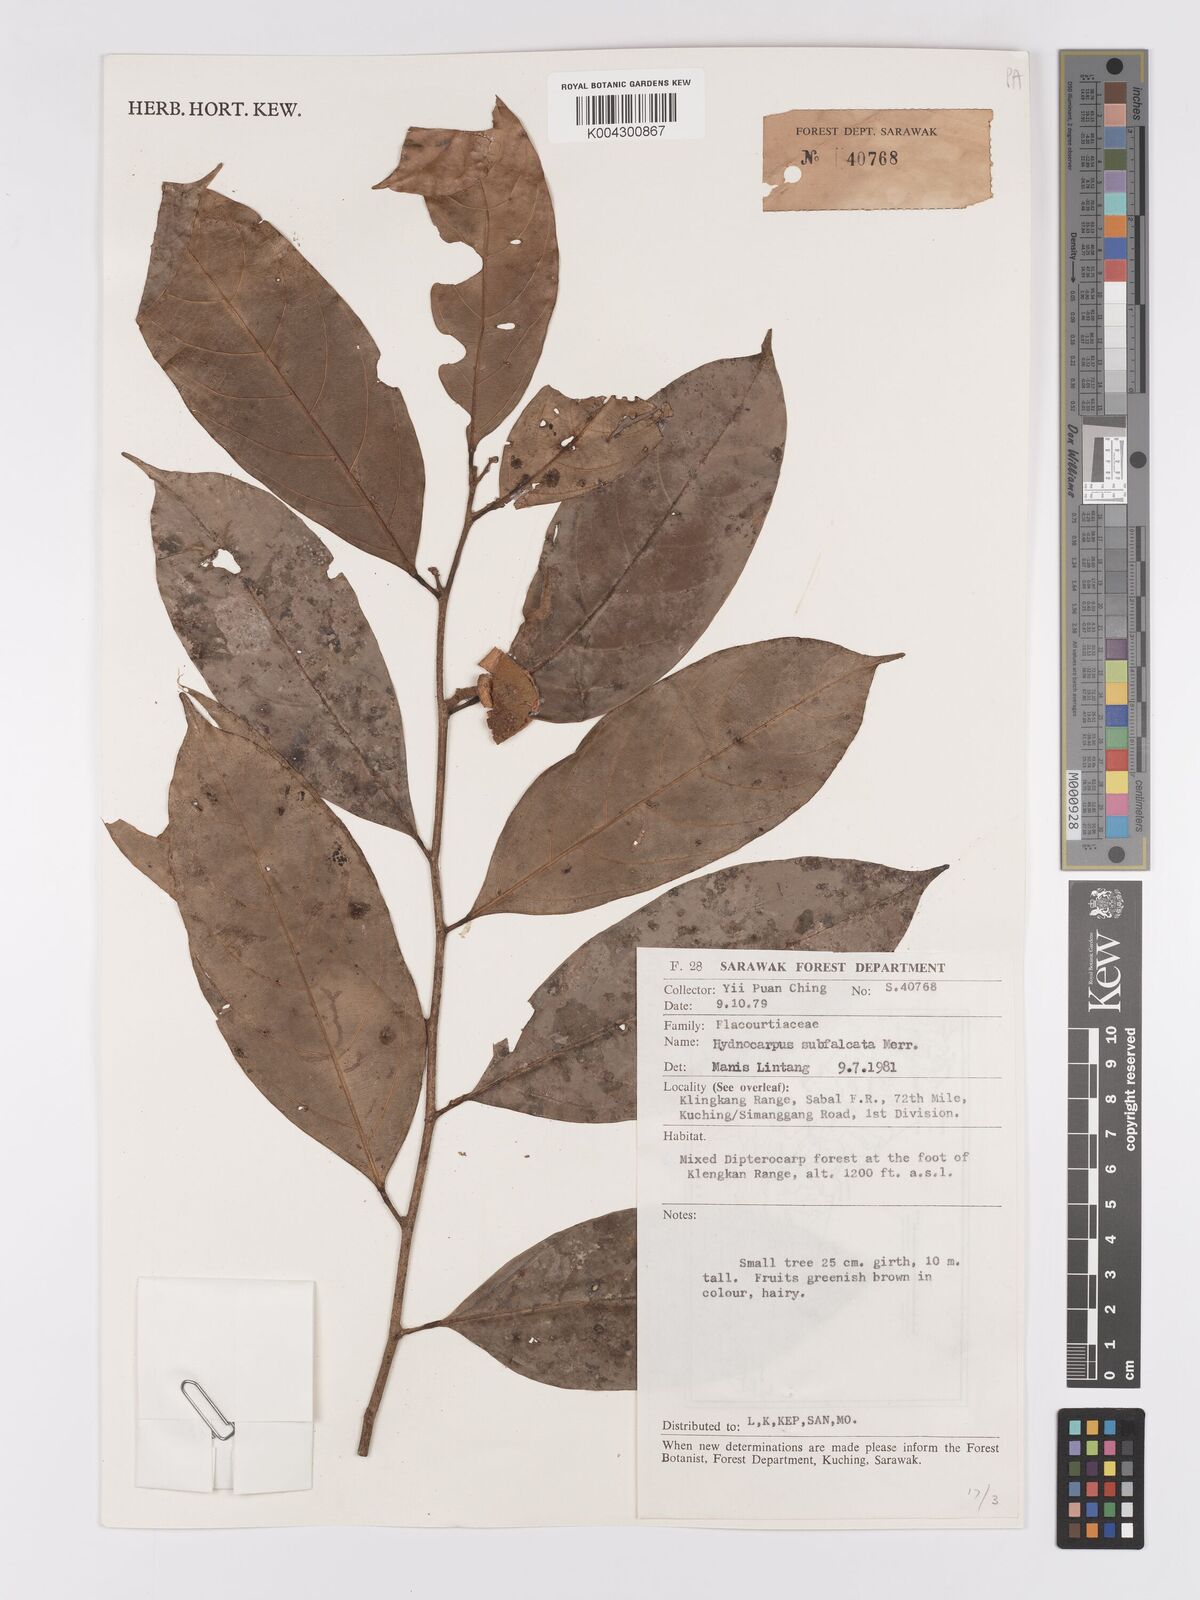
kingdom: Plantae
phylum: Tracheophyta
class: Magnoliopsida
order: Malpighiales
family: Achariaceae
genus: Hydnocarpus
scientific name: Hydnocarpus subfalcatus
